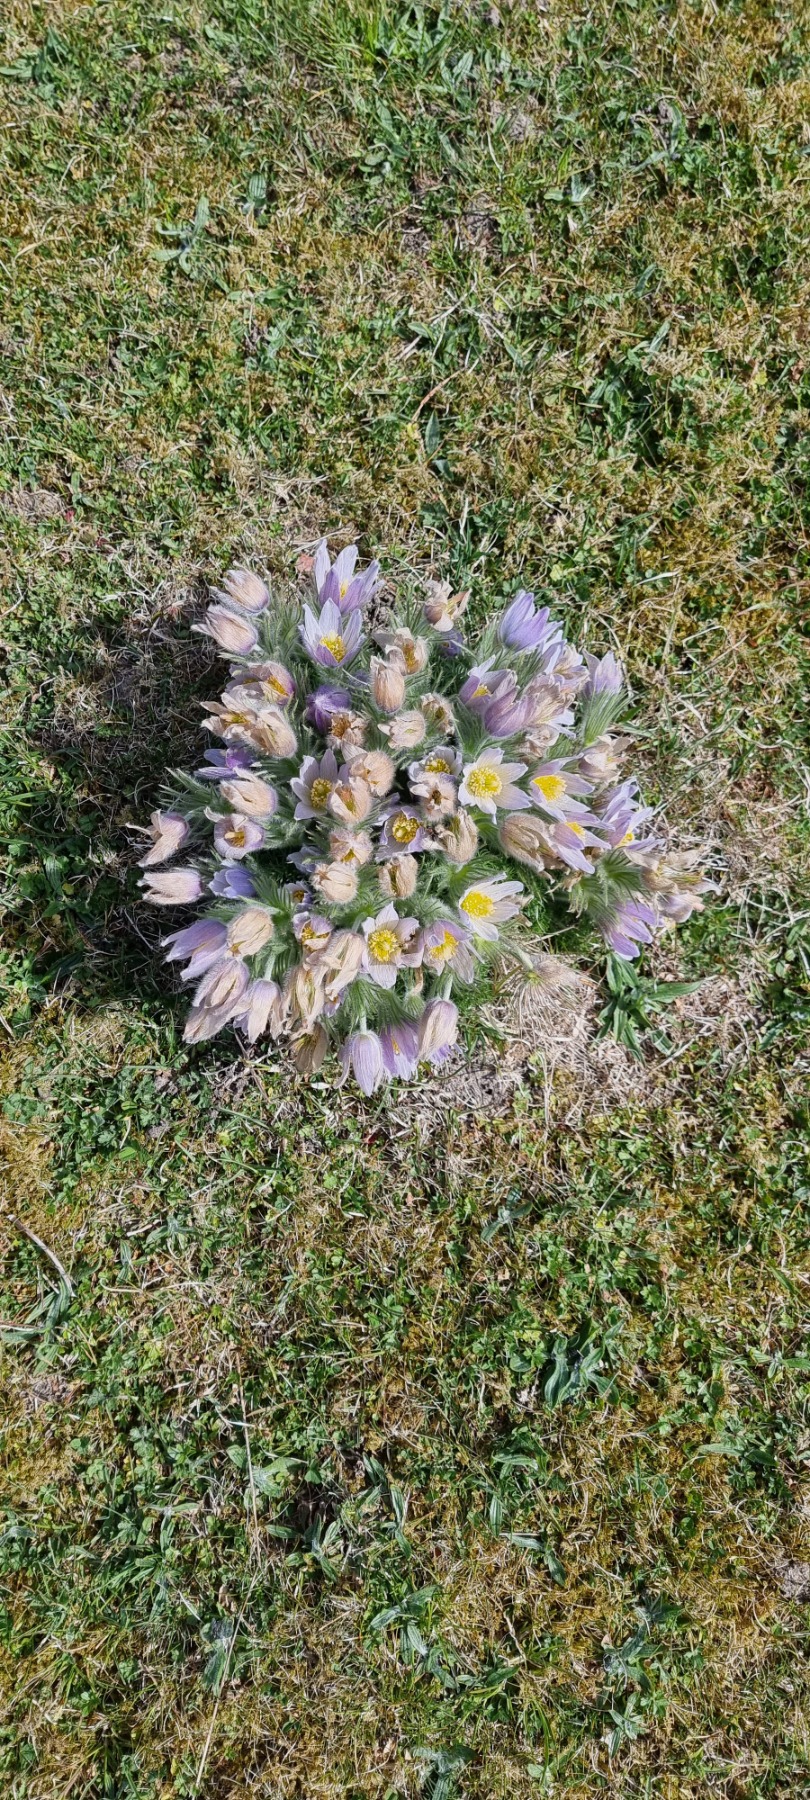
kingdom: Plantae
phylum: Tracheophyta
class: Magnoliopsida
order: Ranunculales
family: Ranunculaceae
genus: Pulsatilla
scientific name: Pulsatilla vulgaris
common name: Opret kobjælde
